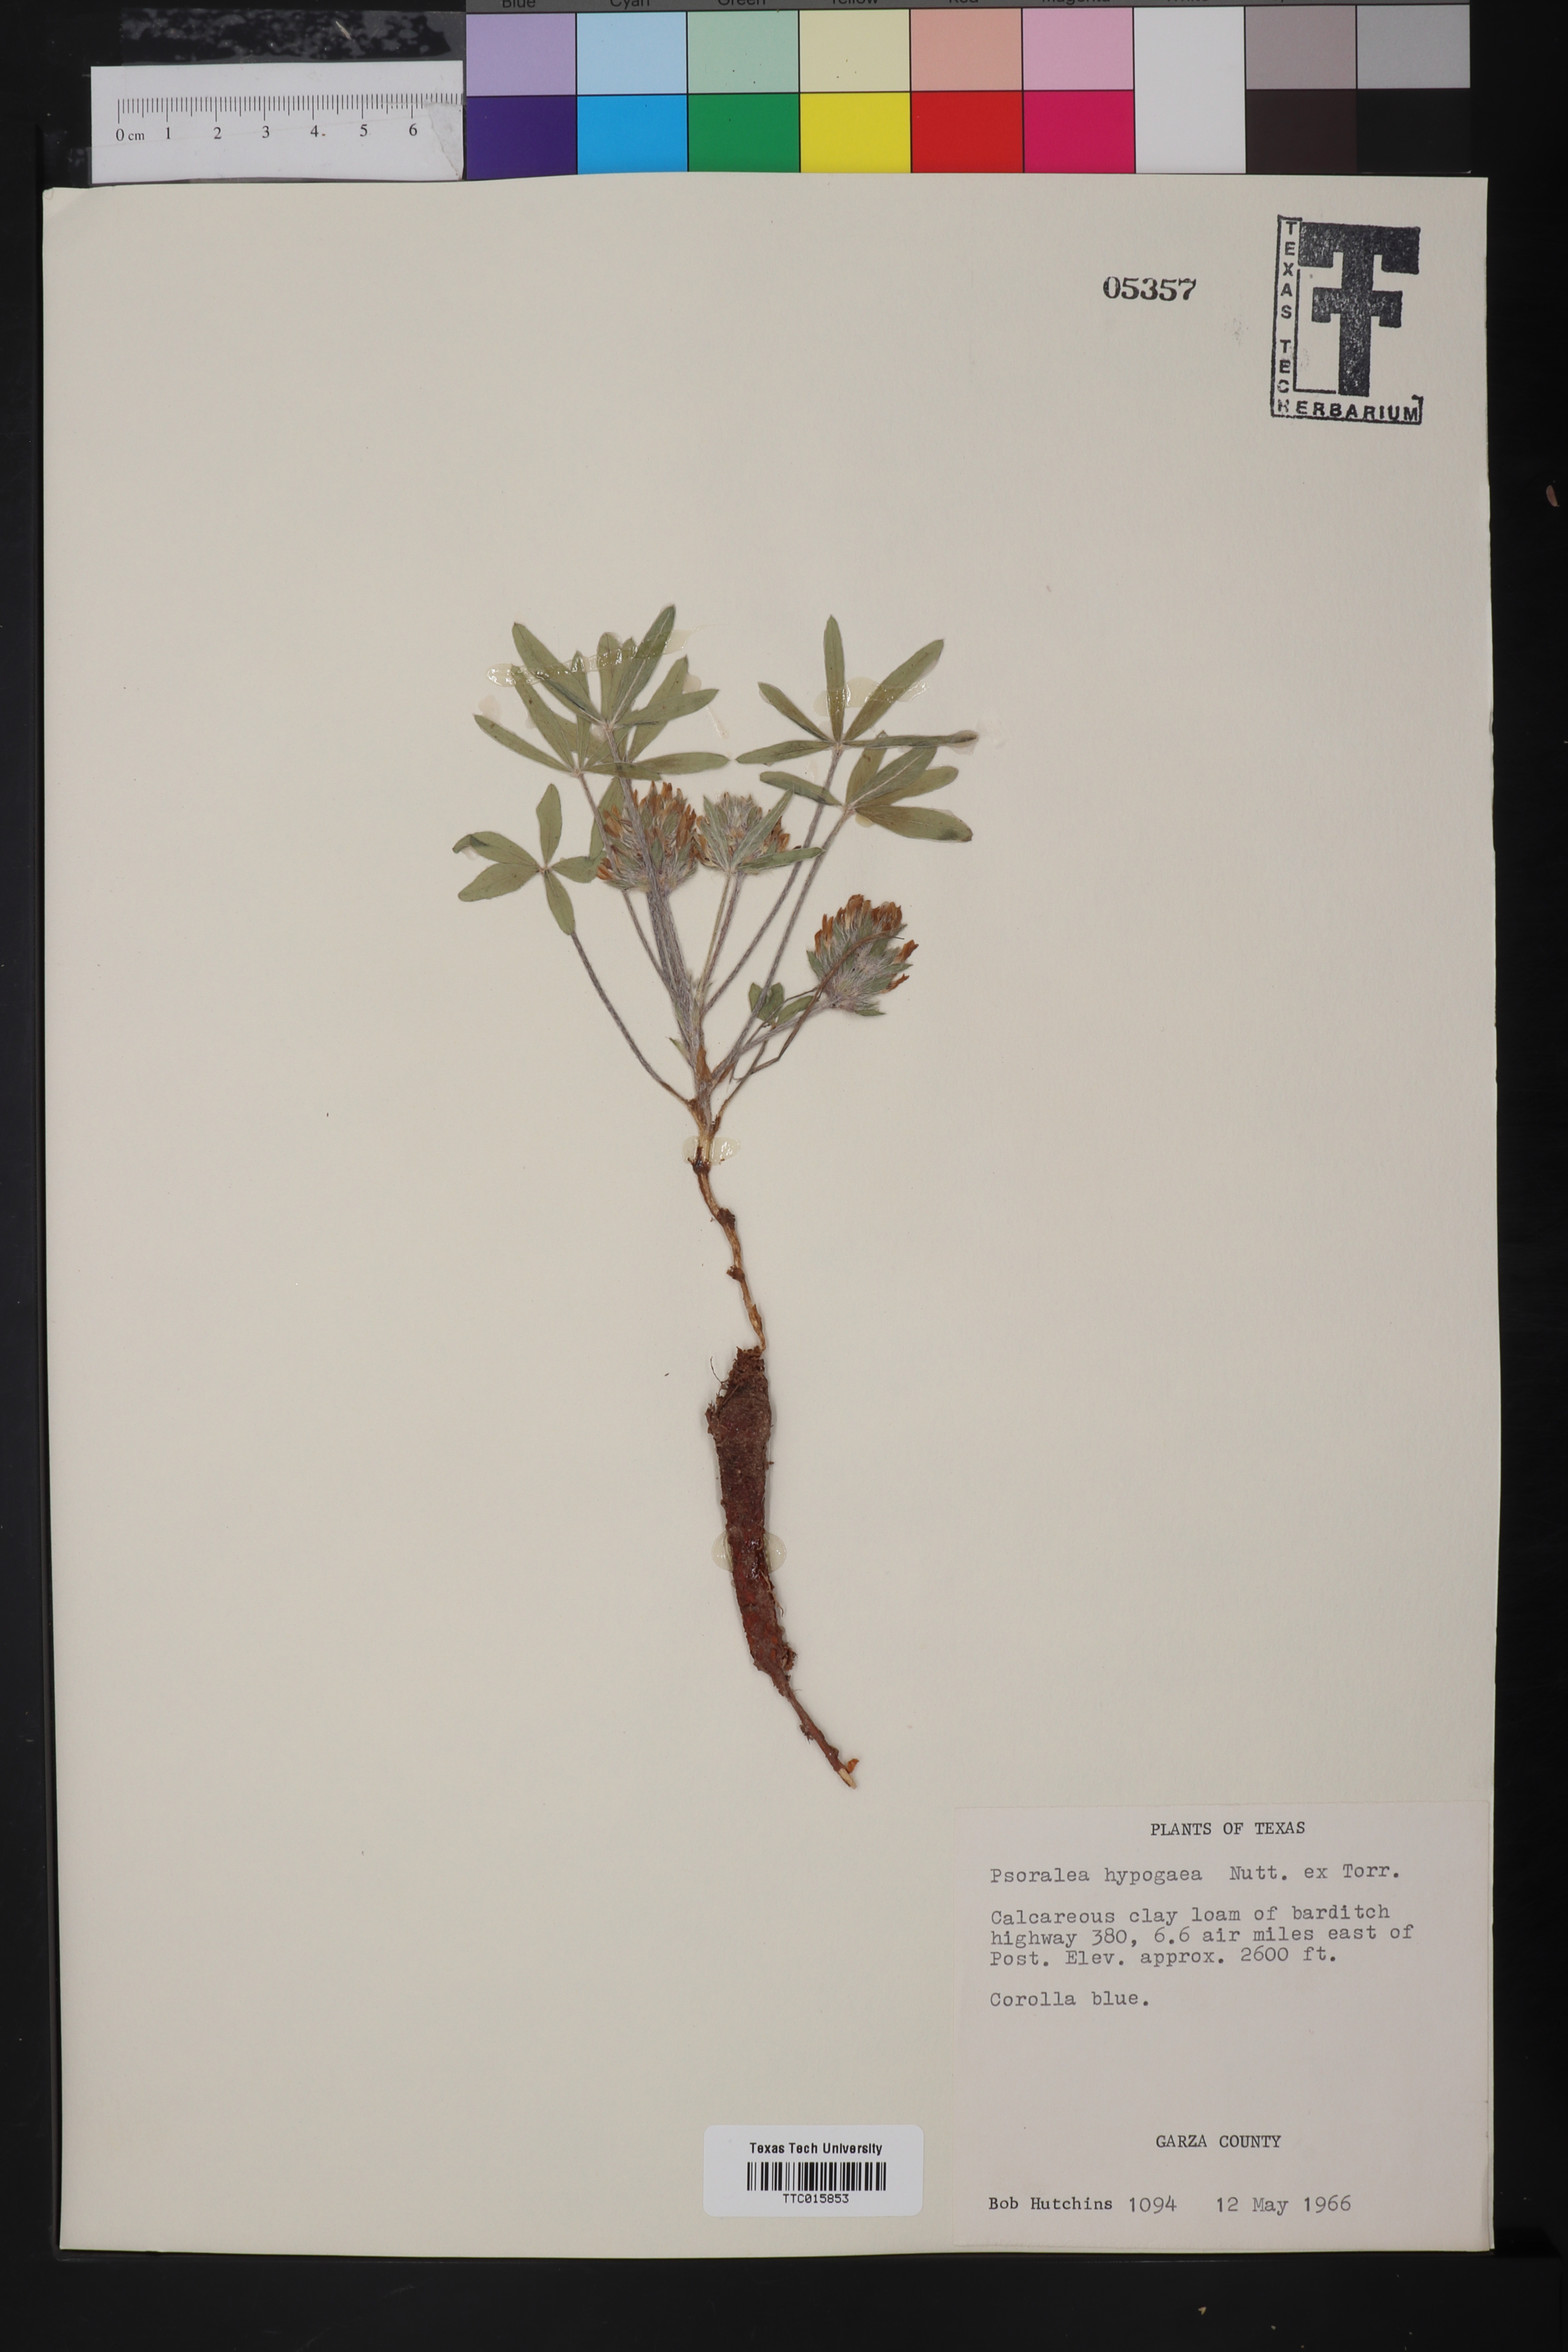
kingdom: Plantae
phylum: Tracheophyta
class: Magnoliopsida
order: Fabales
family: Fabaceae
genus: Pediomelum
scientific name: Pediomelum hypogaeum
